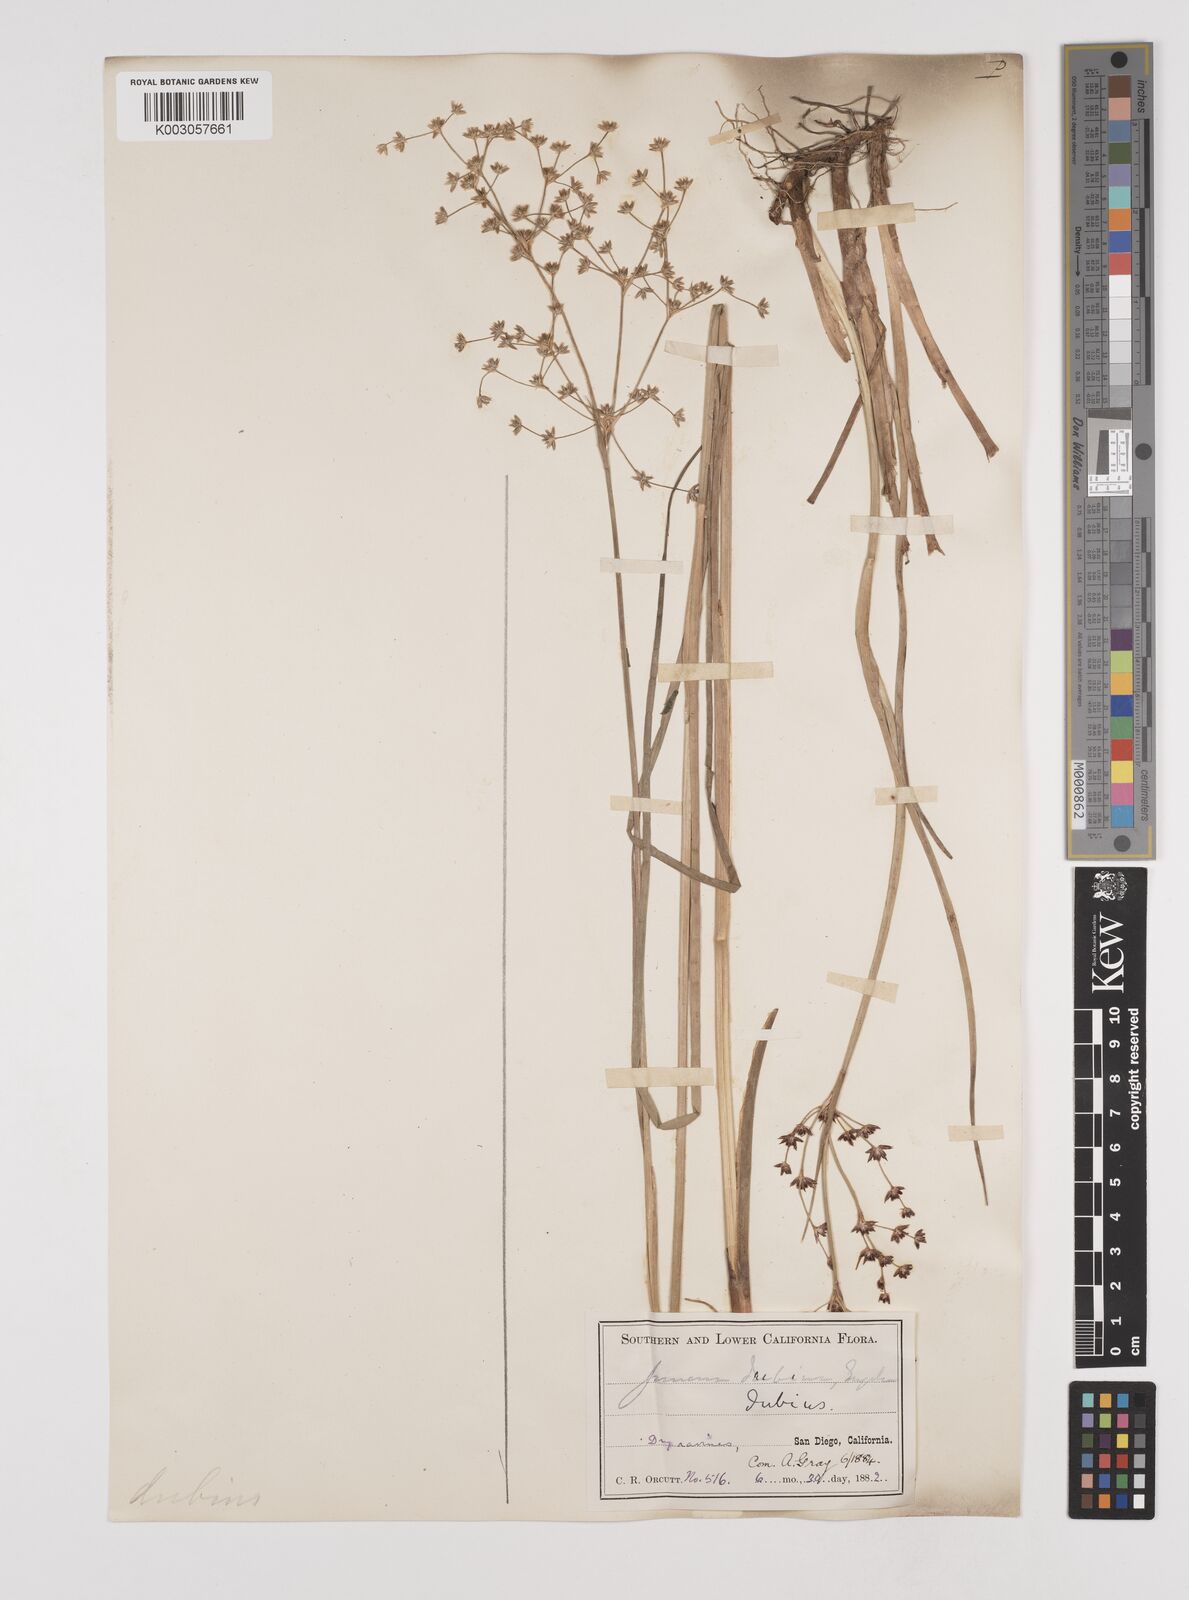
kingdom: Plantae
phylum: Tracheophyta
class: Liliopsida
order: Poales
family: Juncaceae
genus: Juncus
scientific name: Juncus dubius
